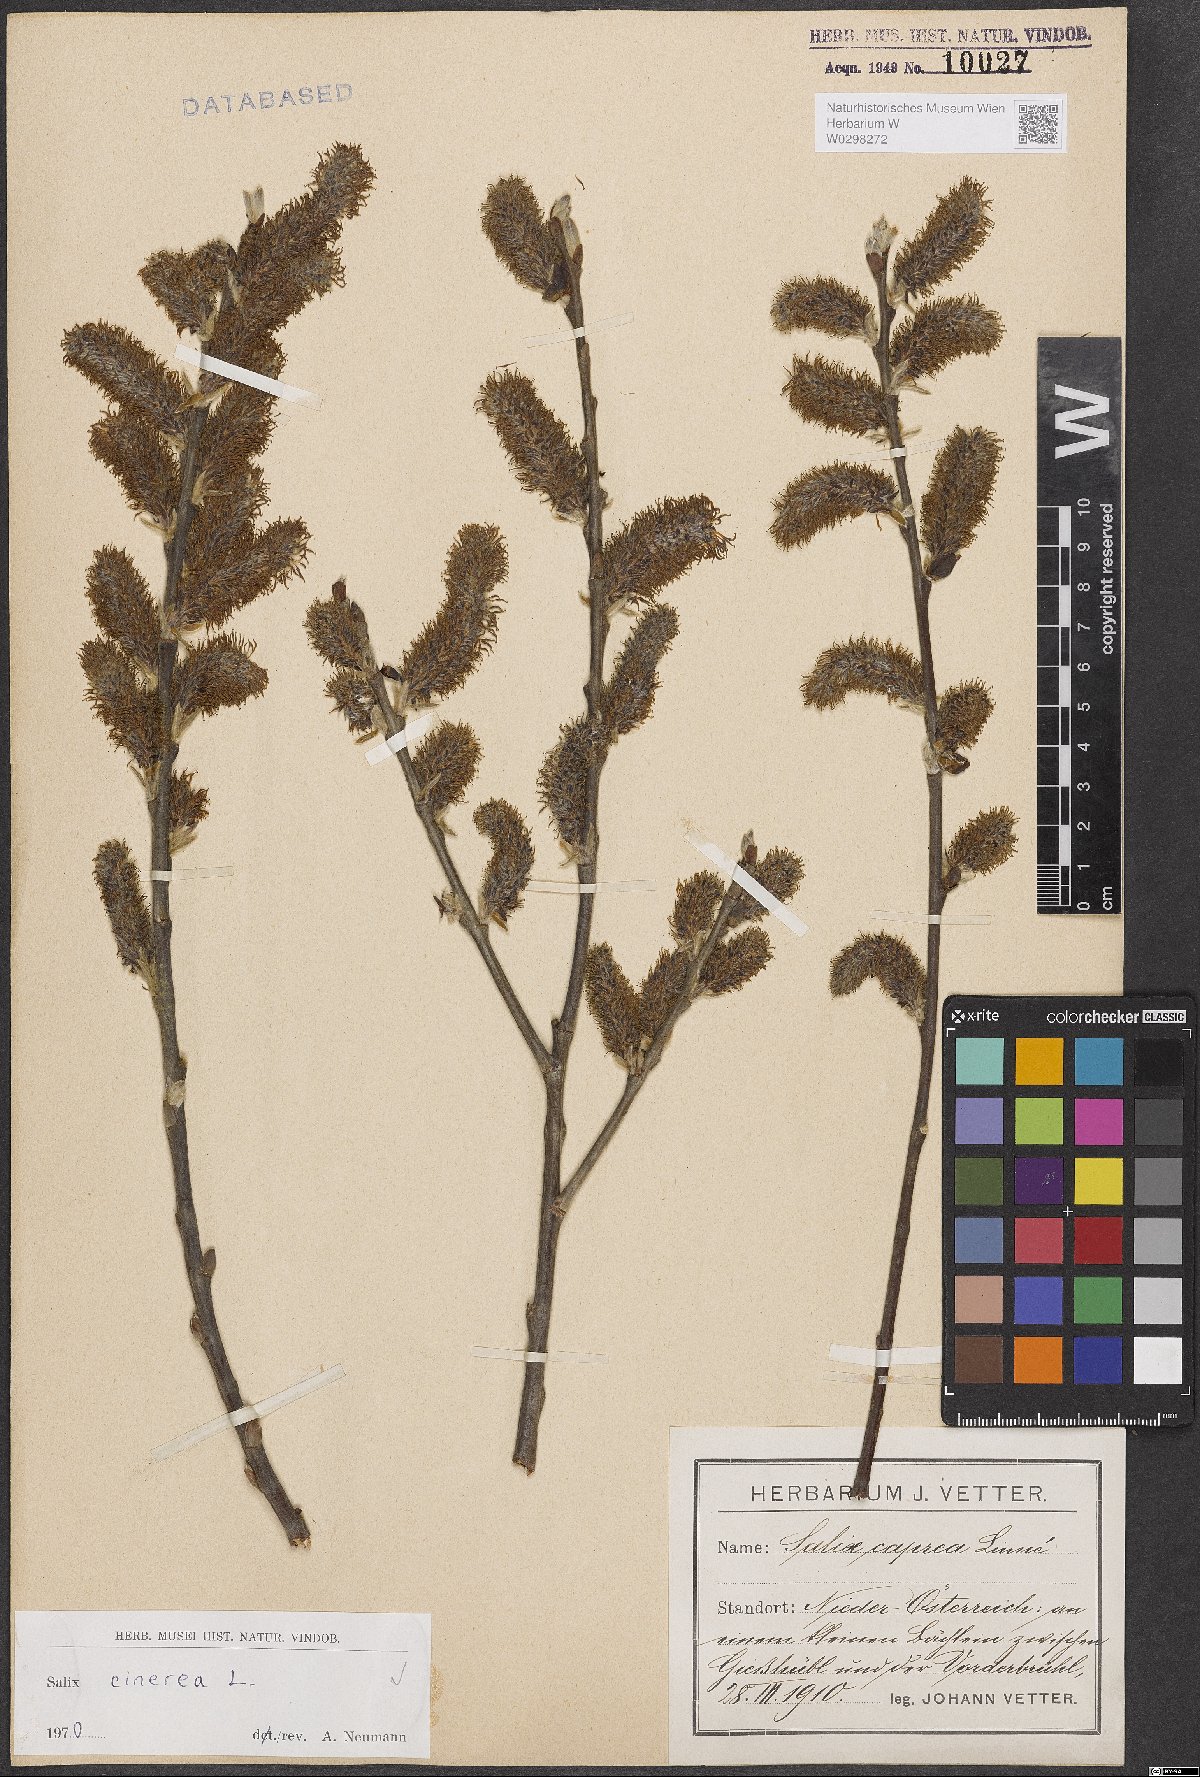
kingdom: Plantae
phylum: Tracheophyta
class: Magnoliopsida
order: Malpighiales
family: Salicaceae
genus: Salix
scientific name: Salix cinerea
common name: Common sallow
